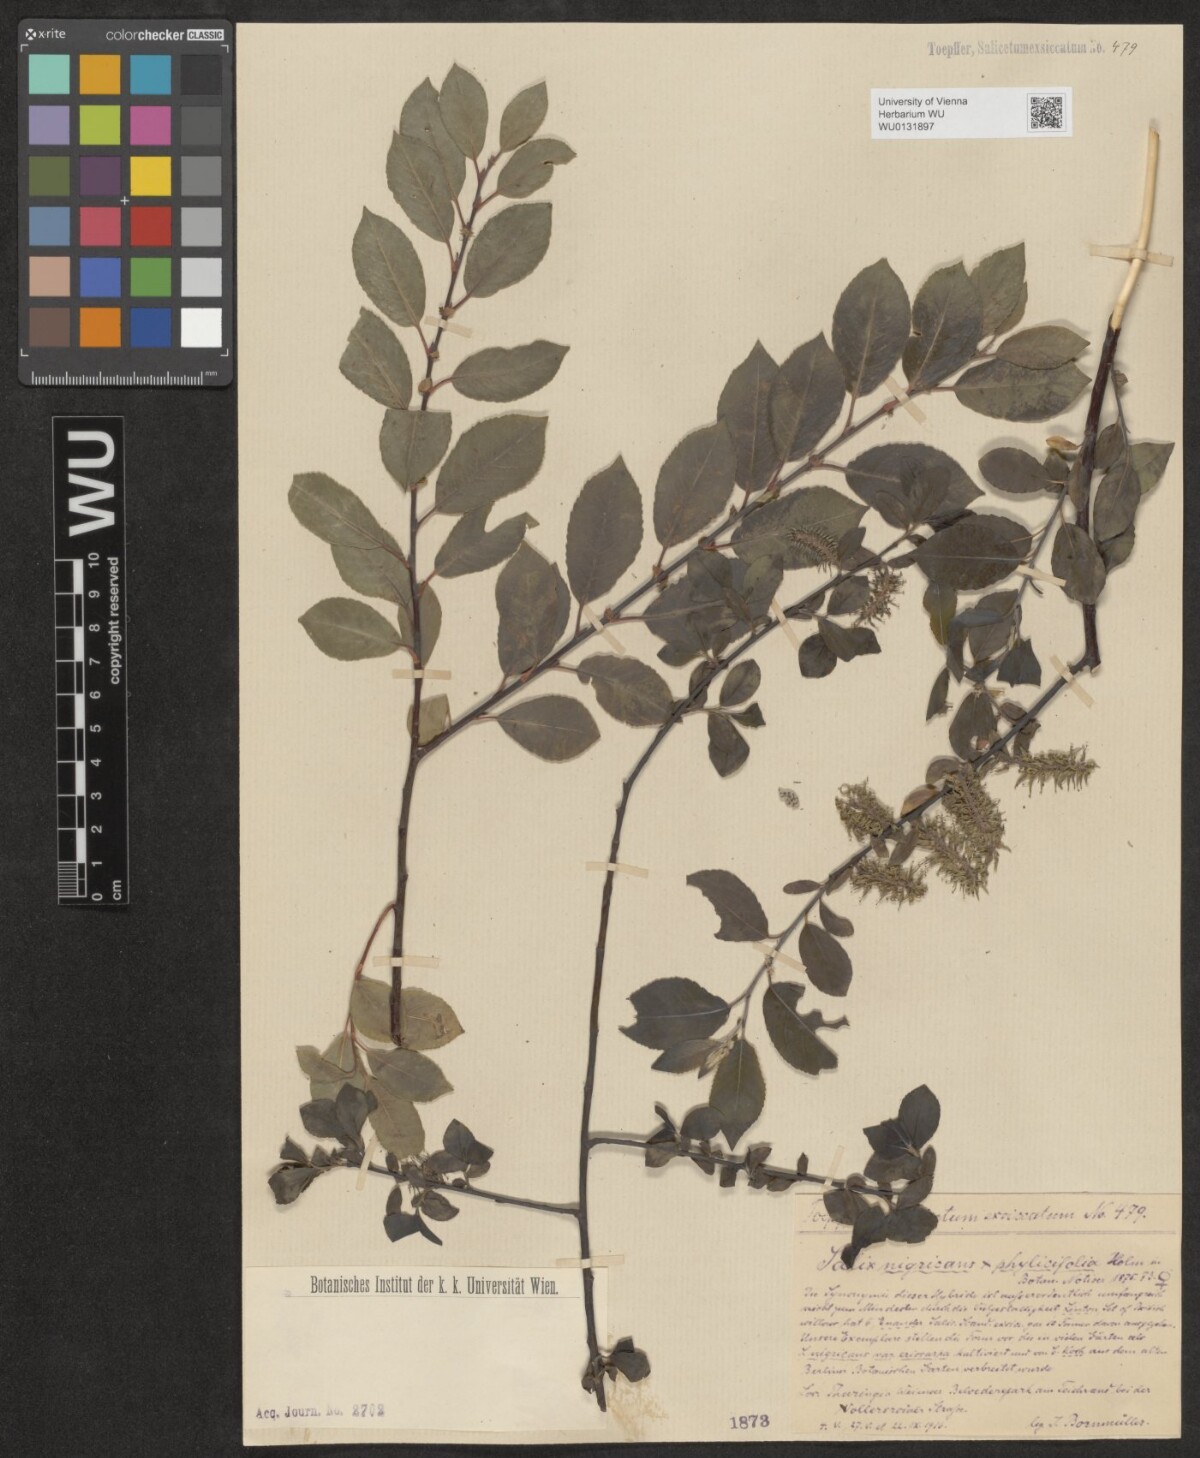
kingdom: Plantae
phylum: Tracheophyta
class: Magnoliopsida
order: Malpighiales
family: Salicaceae
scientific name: Salicaceae
